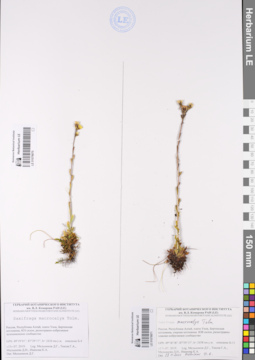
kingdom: Plantae
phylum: Tracheophyta
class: Magnoliopsida
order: Saxifragales
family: Saxifragaceae
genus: Saxifraga
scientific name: Saxifraga flagellaris
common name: Spider saxifrage
